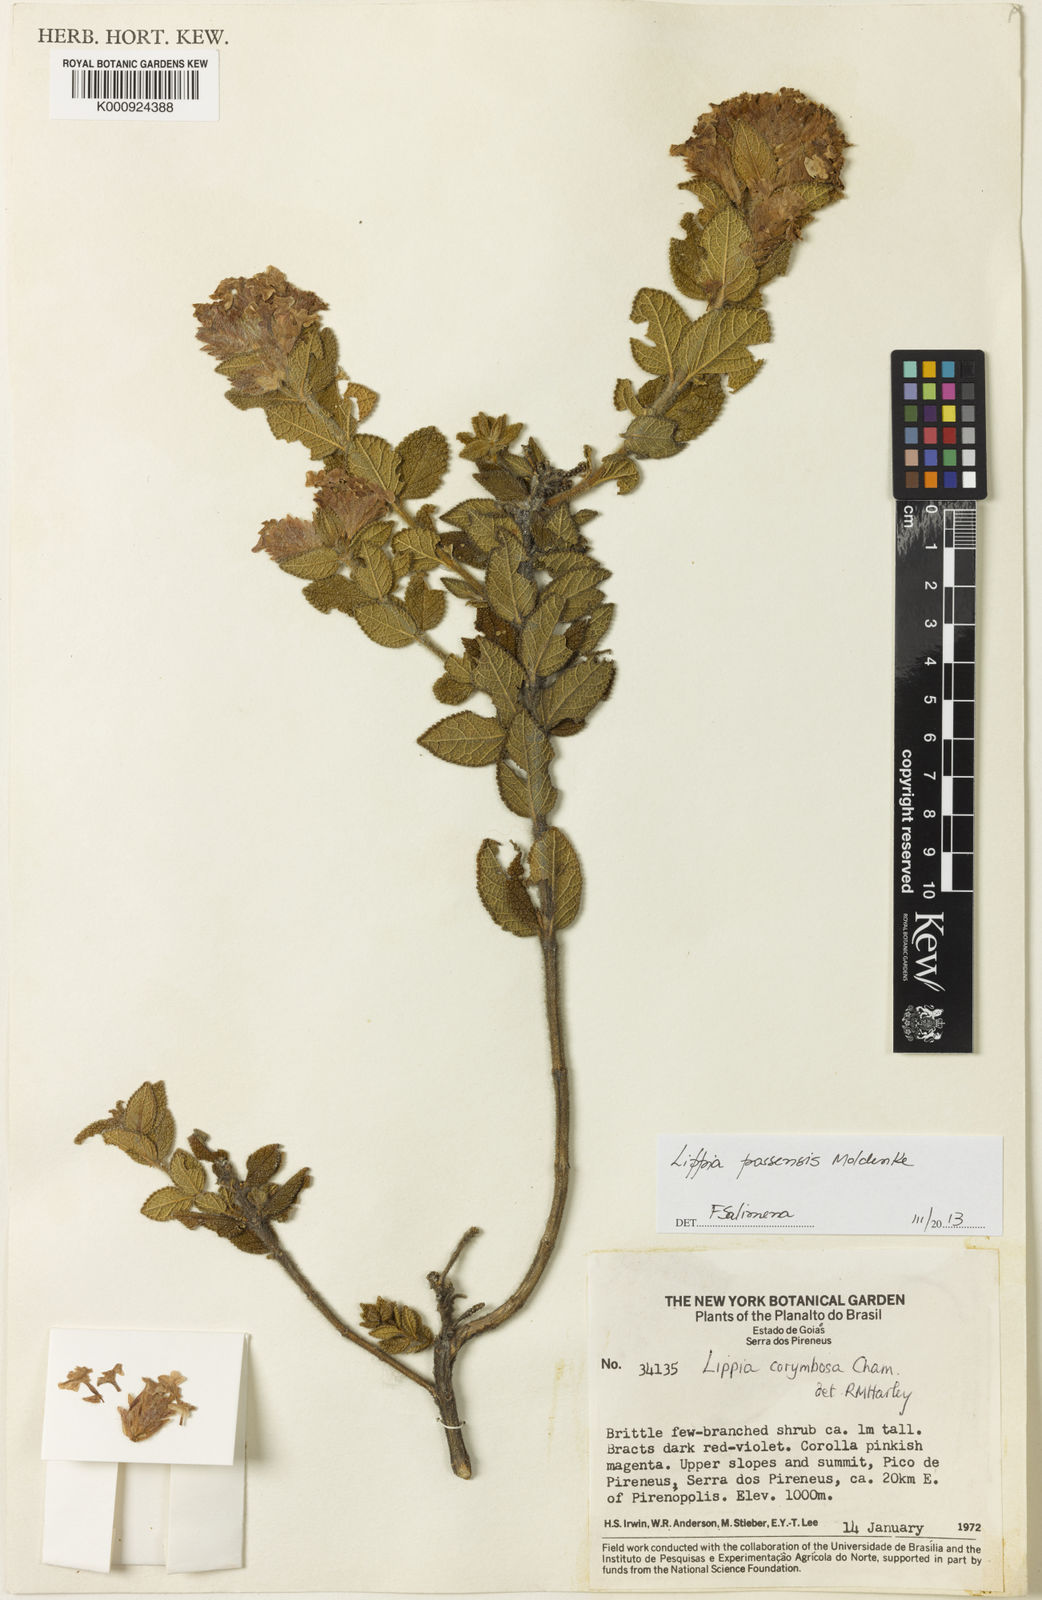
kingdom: Plantae
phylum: Tracheophyta
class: Magnoliopsida
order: Lamiales
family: Verbenaceae
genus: Lippia
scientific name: Lippia possensis
